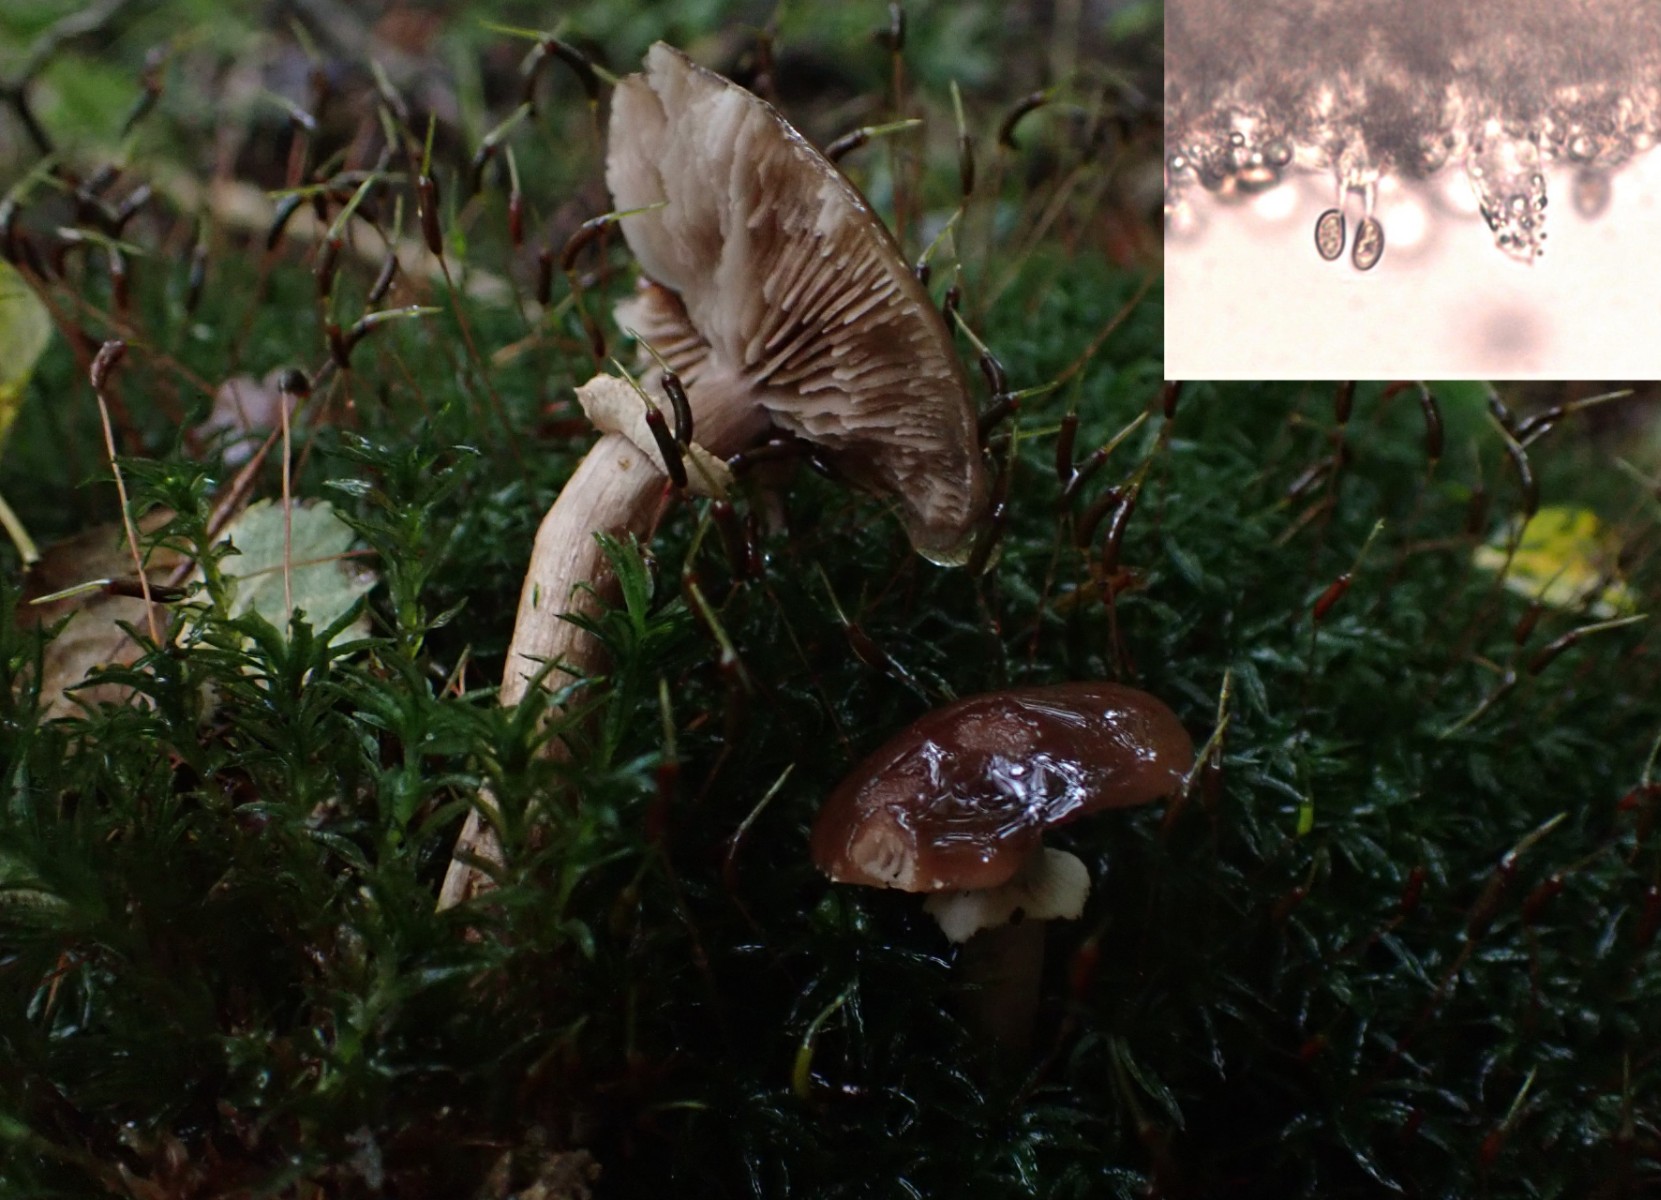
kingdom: Fungi
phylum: Basidiomycota
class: Agaricomycetes
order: Agaricales
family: Tubariaceae
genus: Cyclocybe
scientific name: Cyclocybe erebia
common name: mørk agerhat
